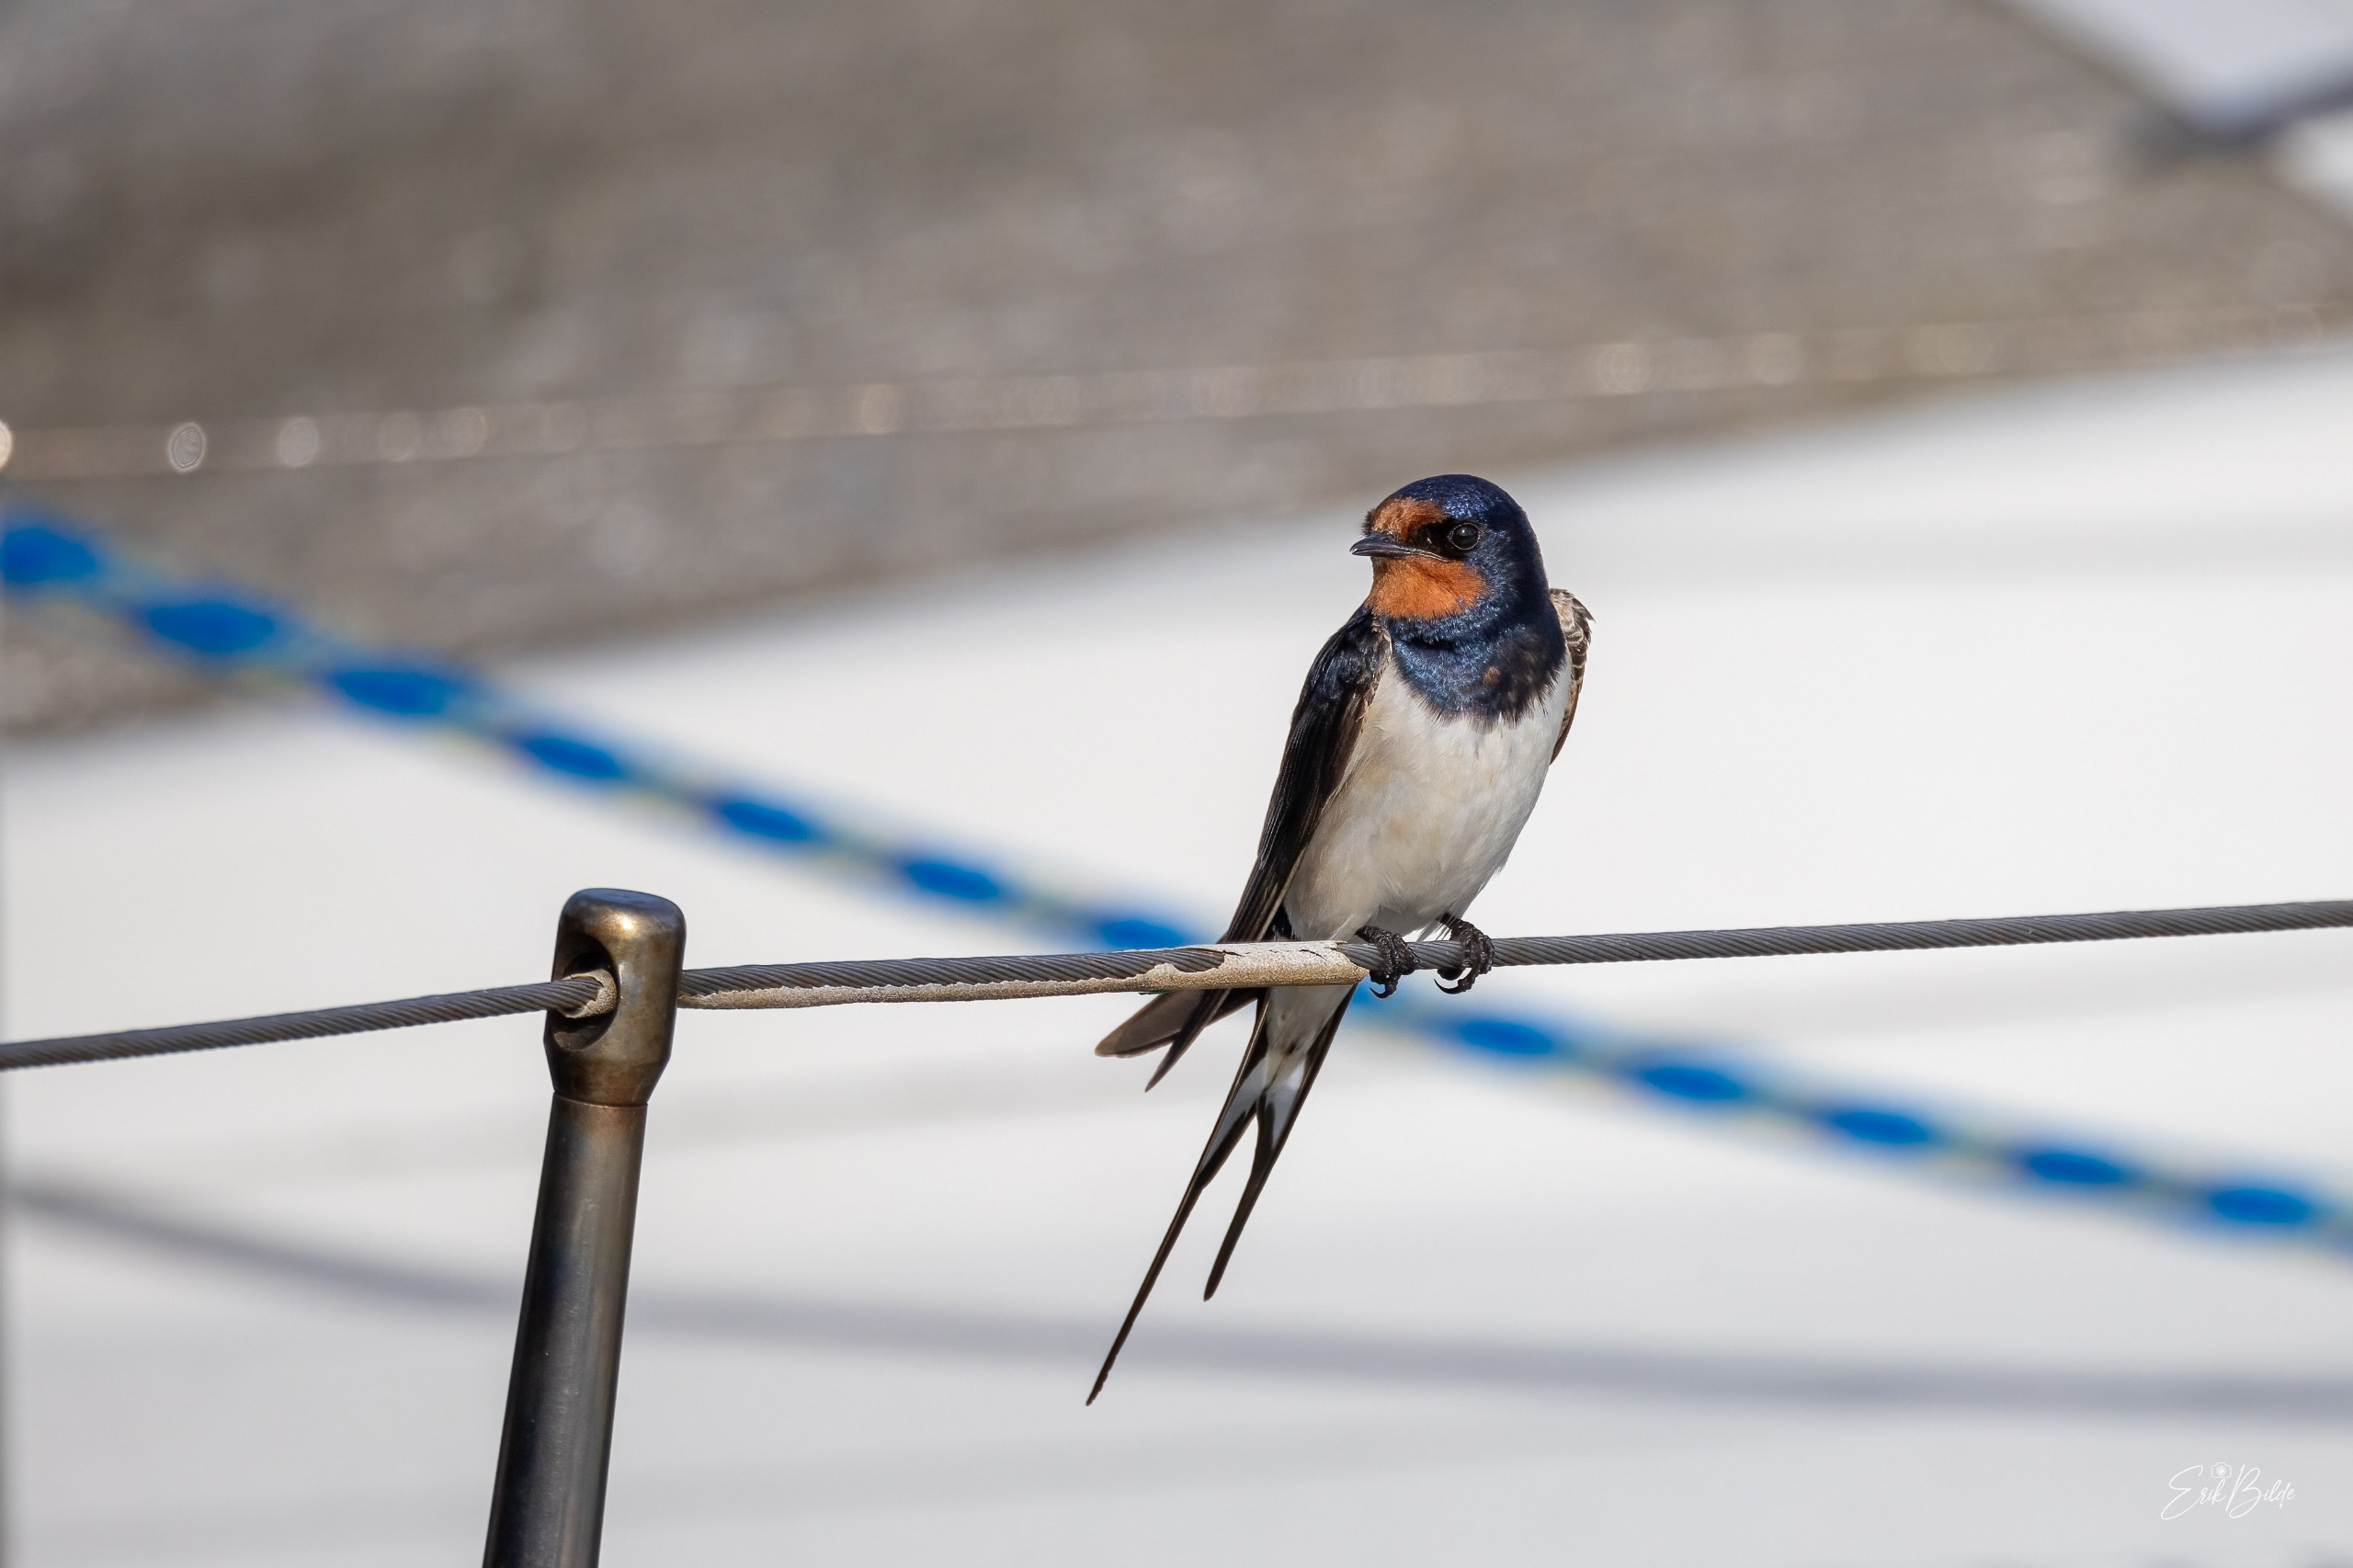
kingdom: Animalia
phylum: Chordata
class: Aves
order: Passeriformes
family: Hirundinidae
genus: Hirundo
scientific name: Hirundo rustica
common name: Landsvale
